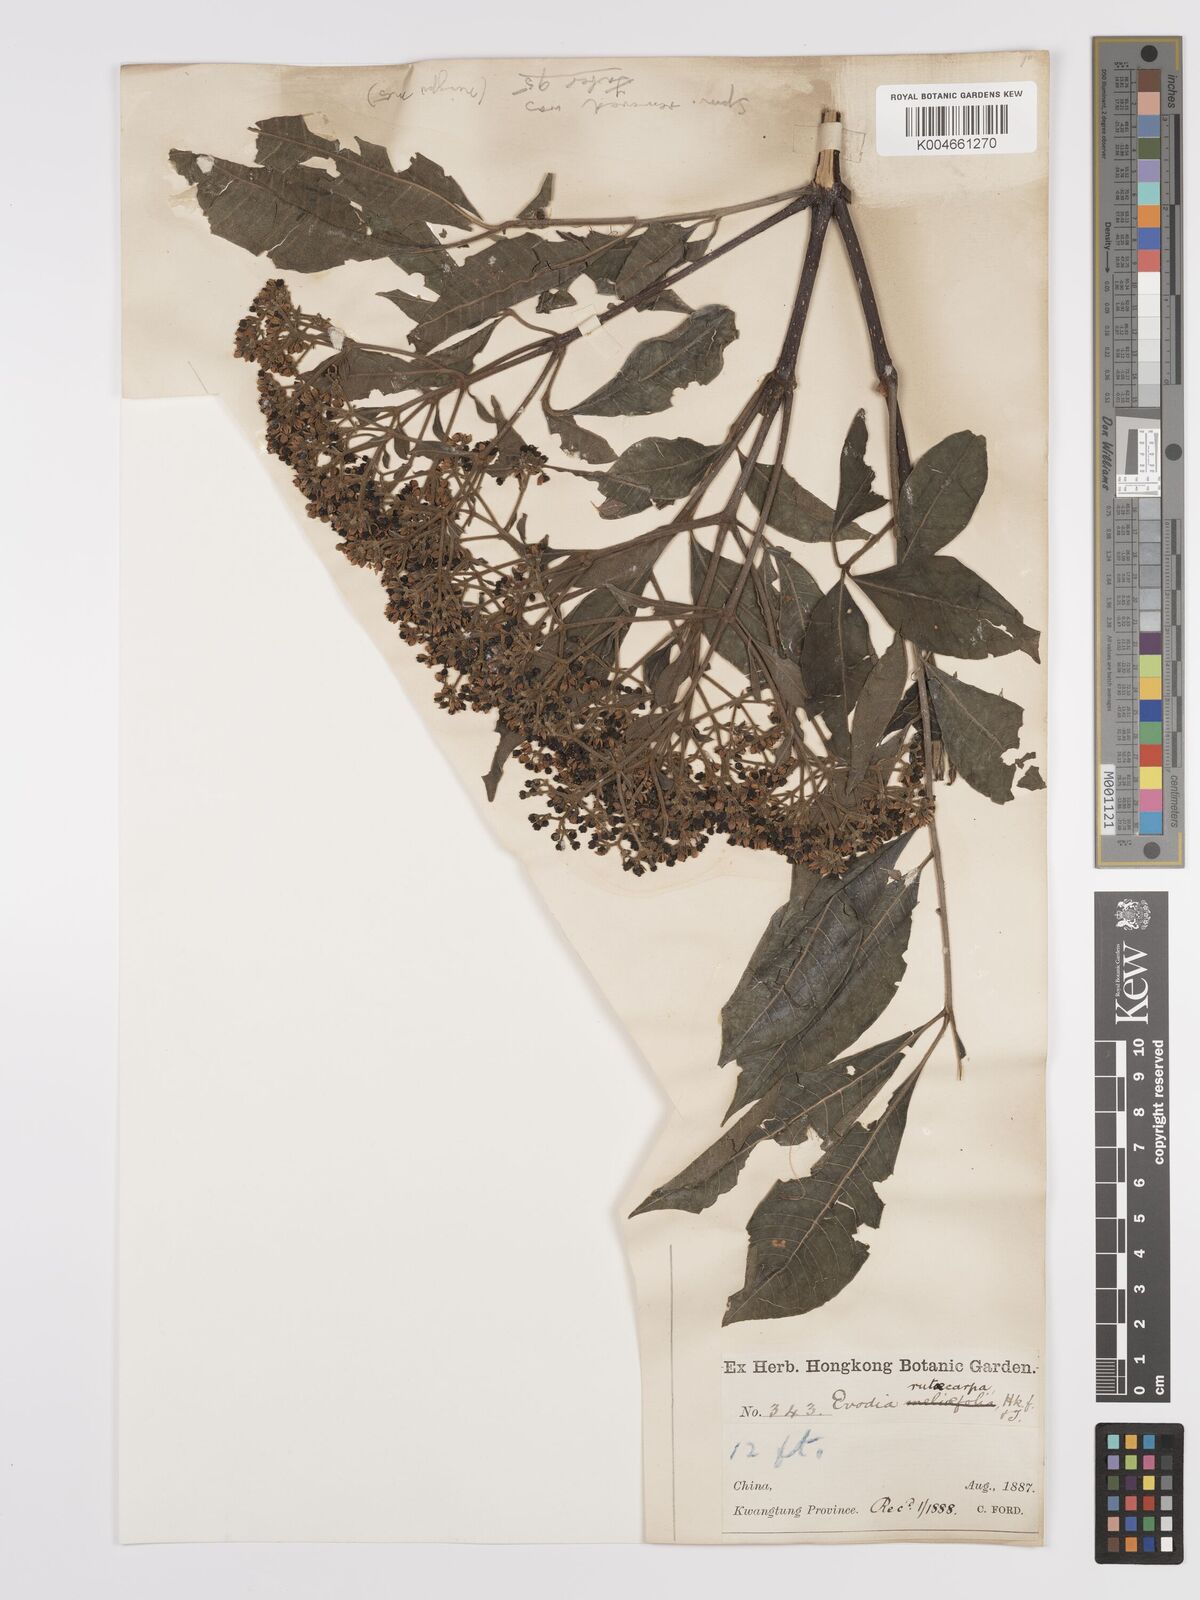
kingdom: Plantae
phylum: Tracheophyta
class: Magnoliopsida
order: Sapindales
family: Rutaceae
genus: Tetradium
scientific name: Tetradium ruticarpum
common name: Evodia
